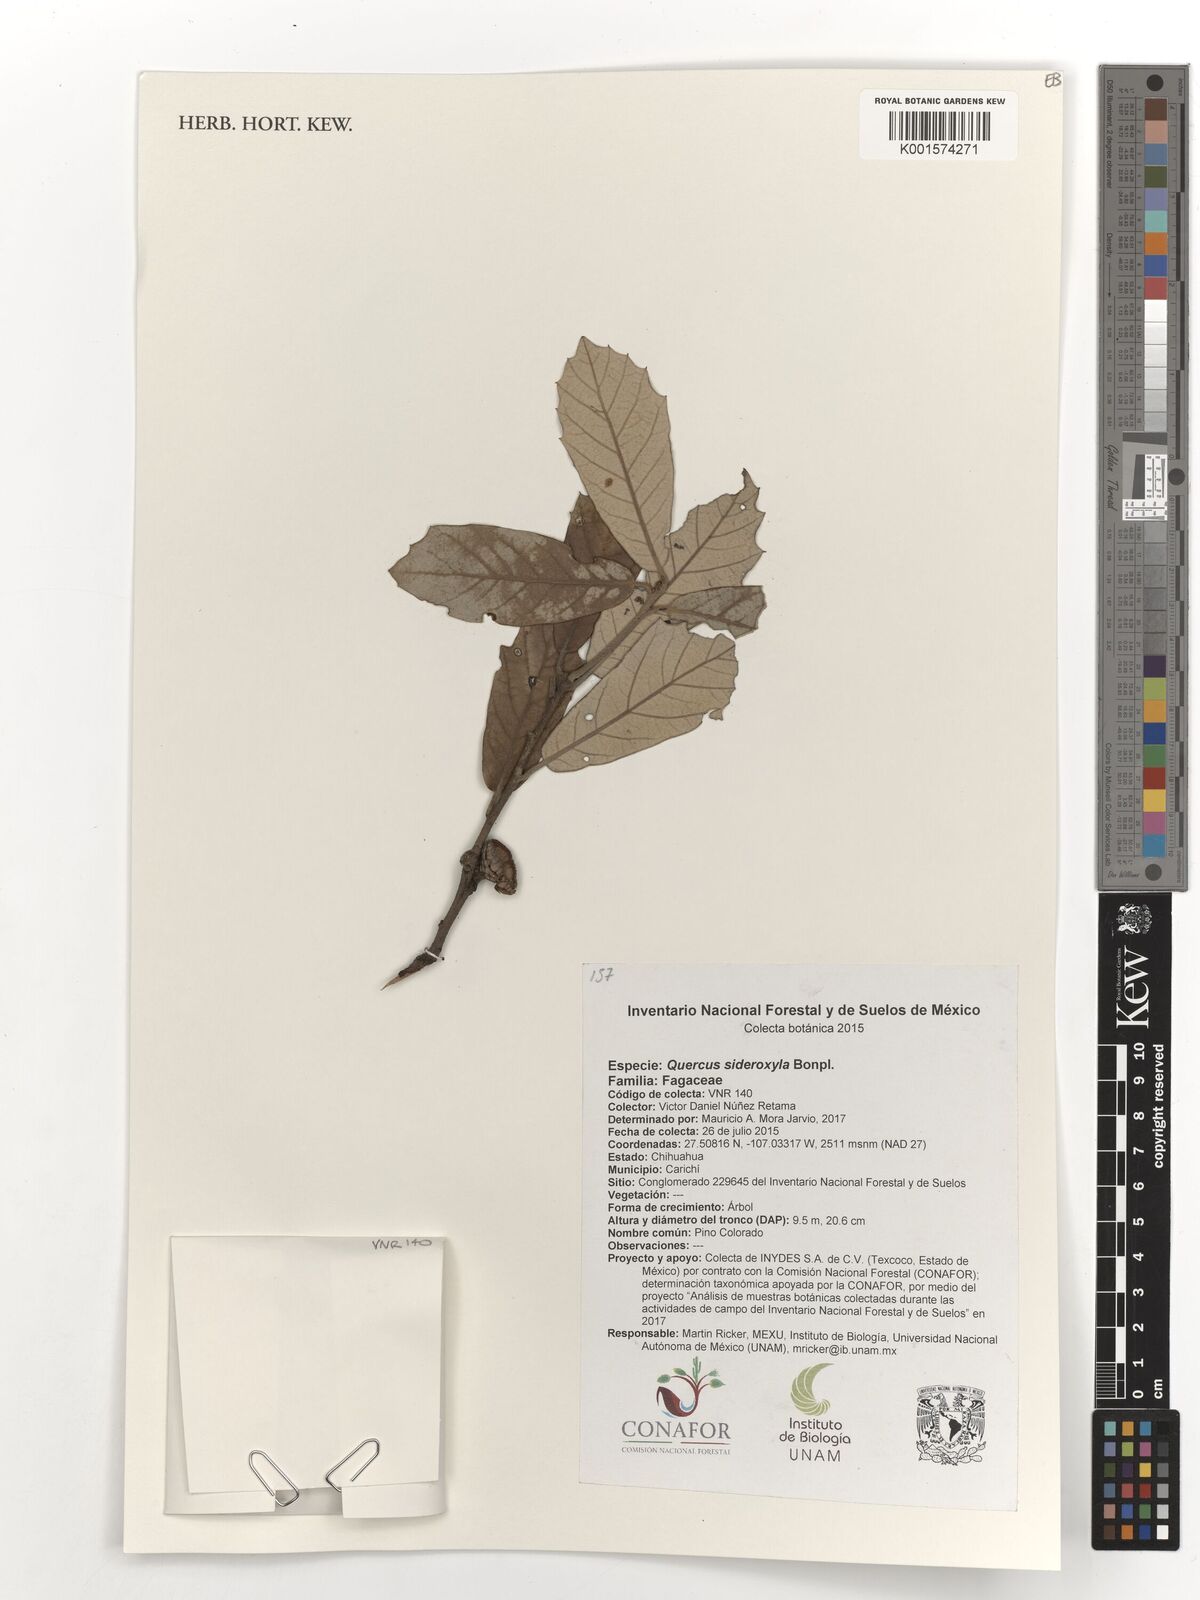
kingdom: Plantae
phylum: Tracheophyta
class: Magnoliopsida
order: Fagales
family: Fagaceae
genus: Quercus
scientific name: Quercus sideroxyla
